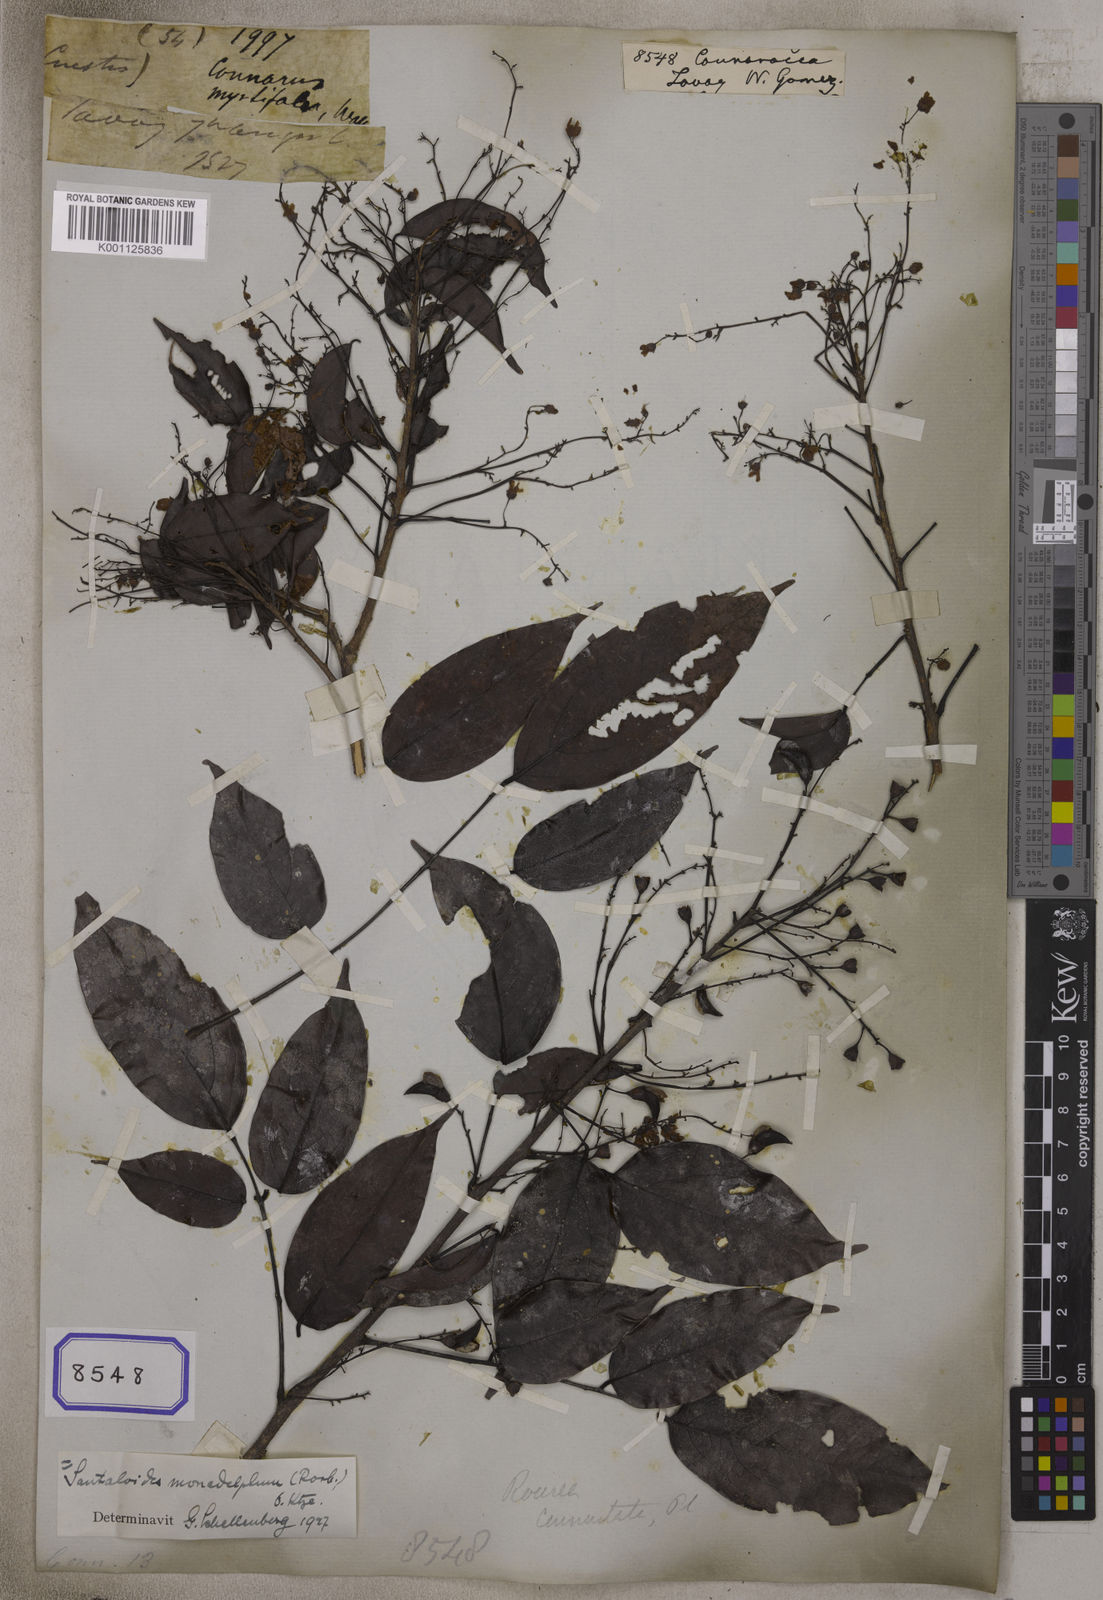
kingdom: Plantae
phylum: Tracheophyta
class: Magnoliopsida
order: Oxalidales
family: Connaraceae
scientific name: Connaraceae
